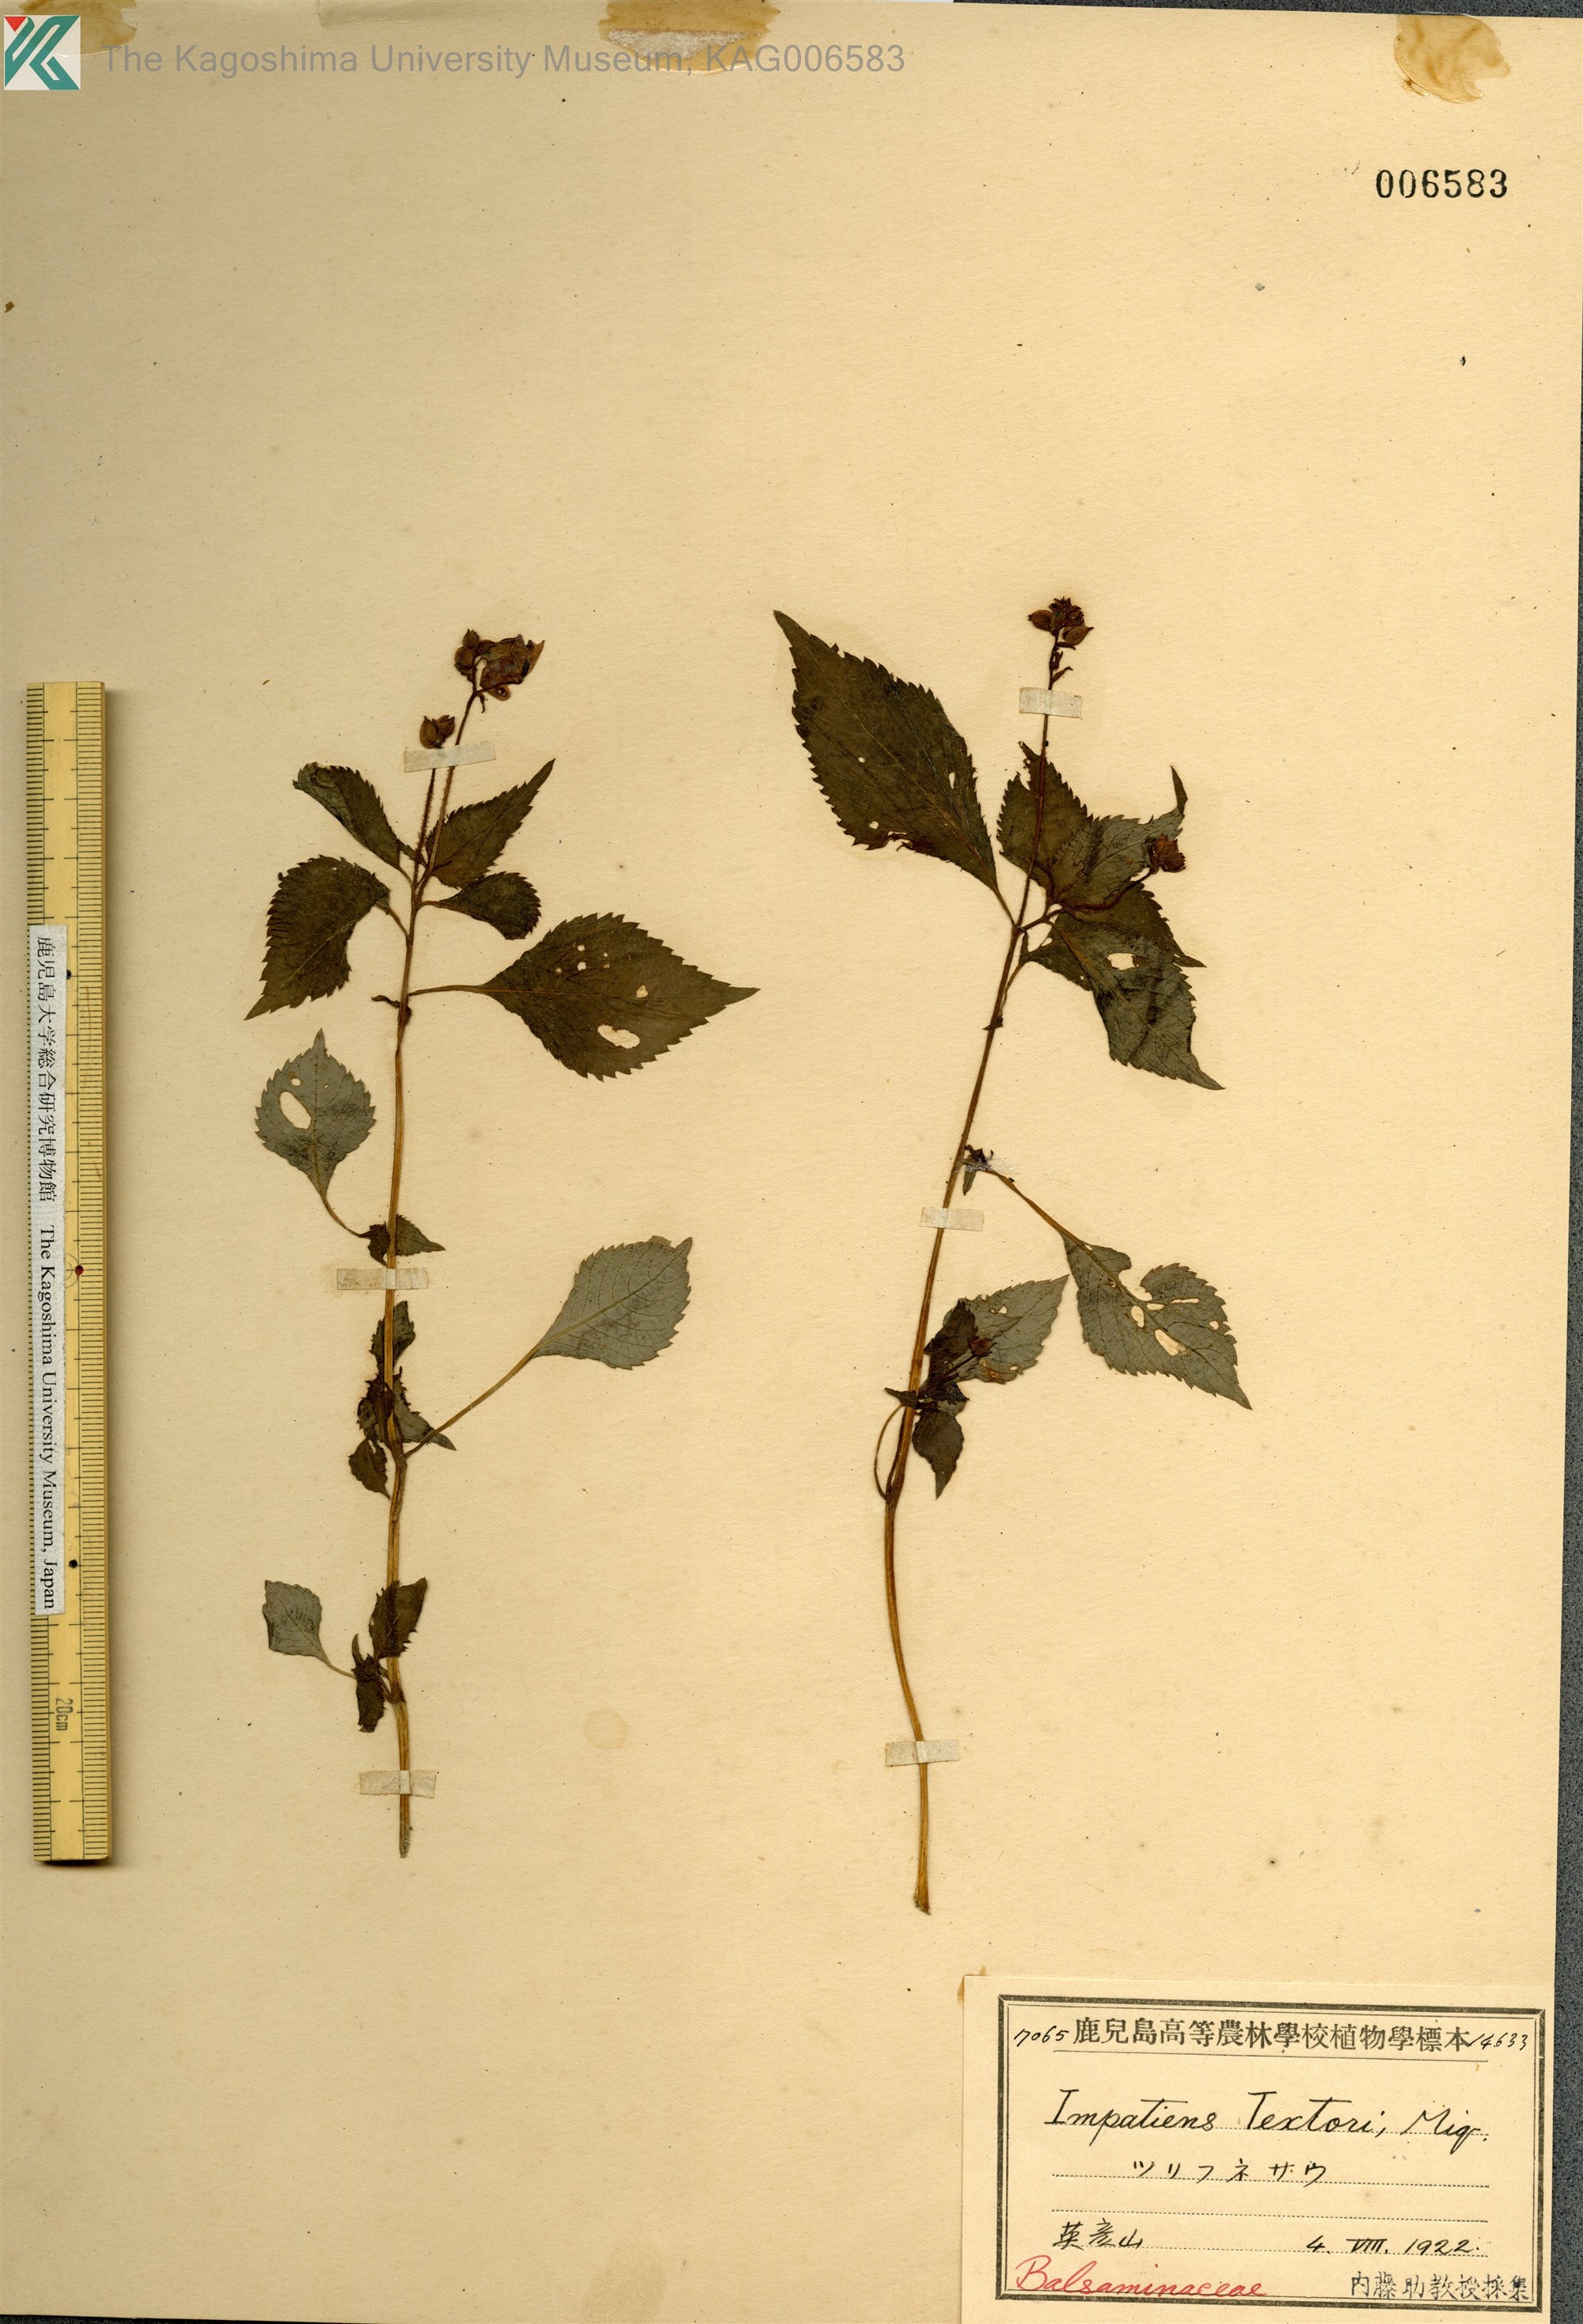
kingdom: Plantae
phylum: Tracheophyta
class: Magnoliopsida
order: Ericales
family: Balsaminaceae
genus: Impatiens
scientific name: Impatiens textorii
